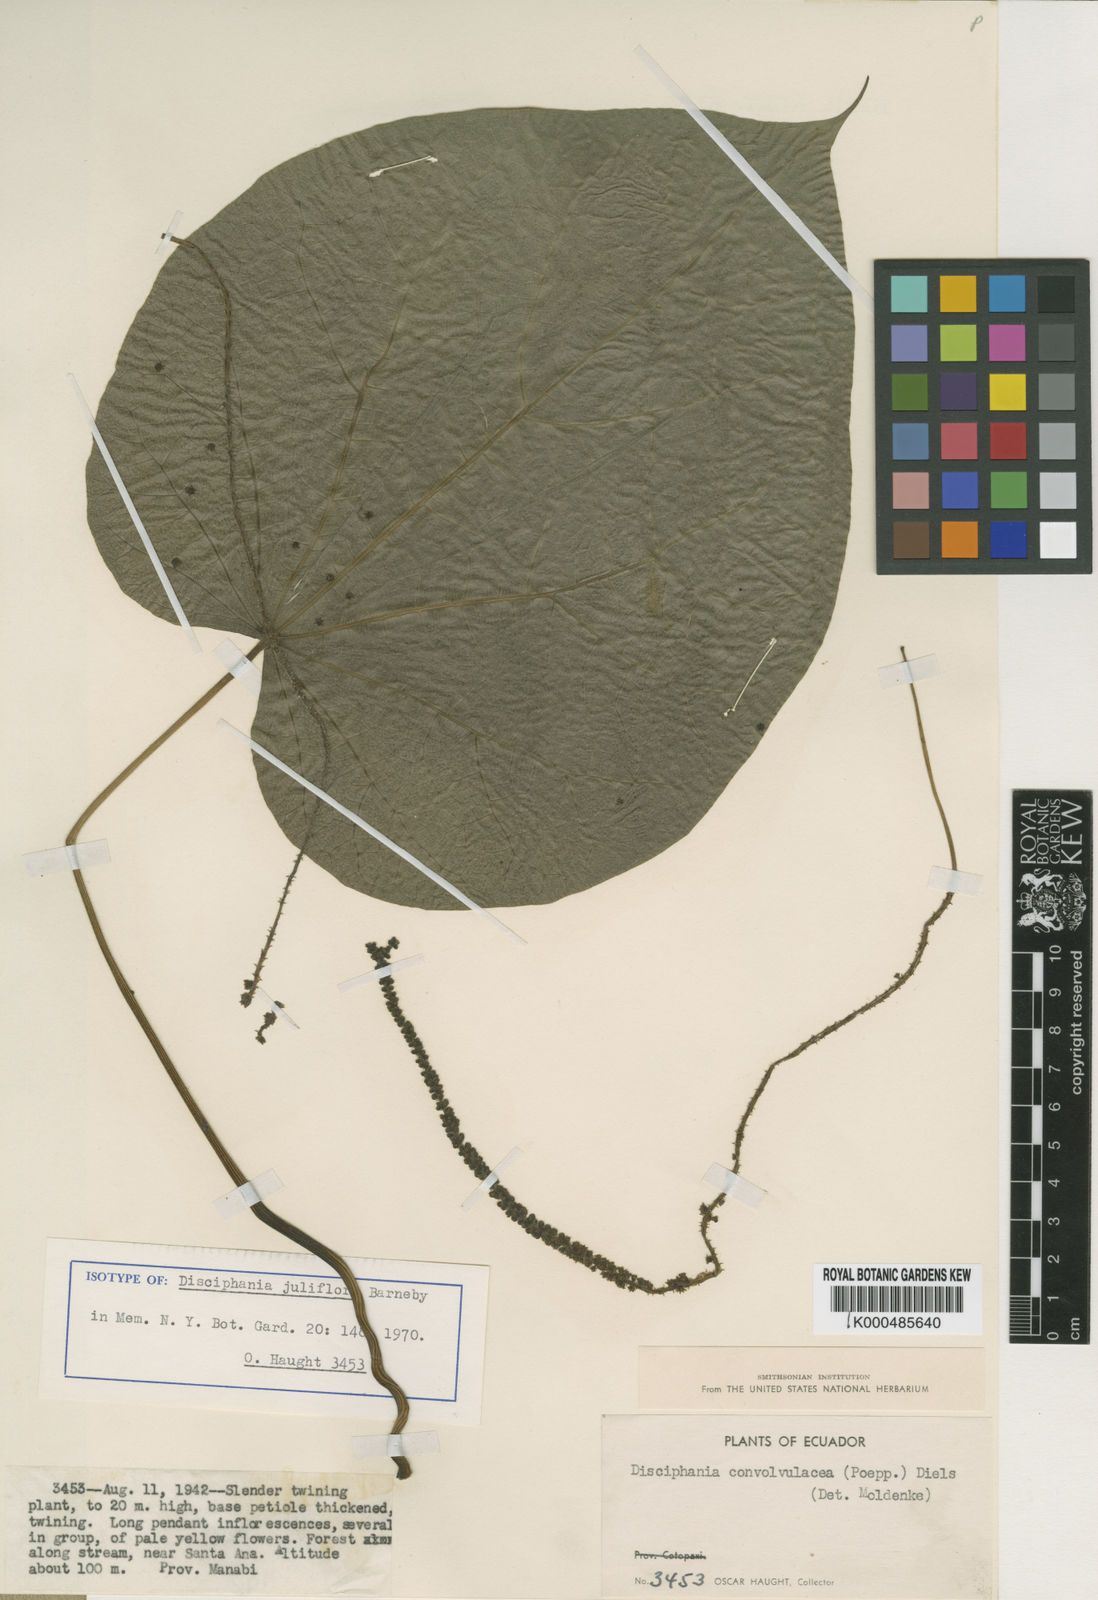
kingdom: Plantae
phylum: Tracheophyta
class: Magnoliopsida
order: Ranunculales
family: Menispermaceae
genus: Disciphania
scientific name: Disciphania juliflora
